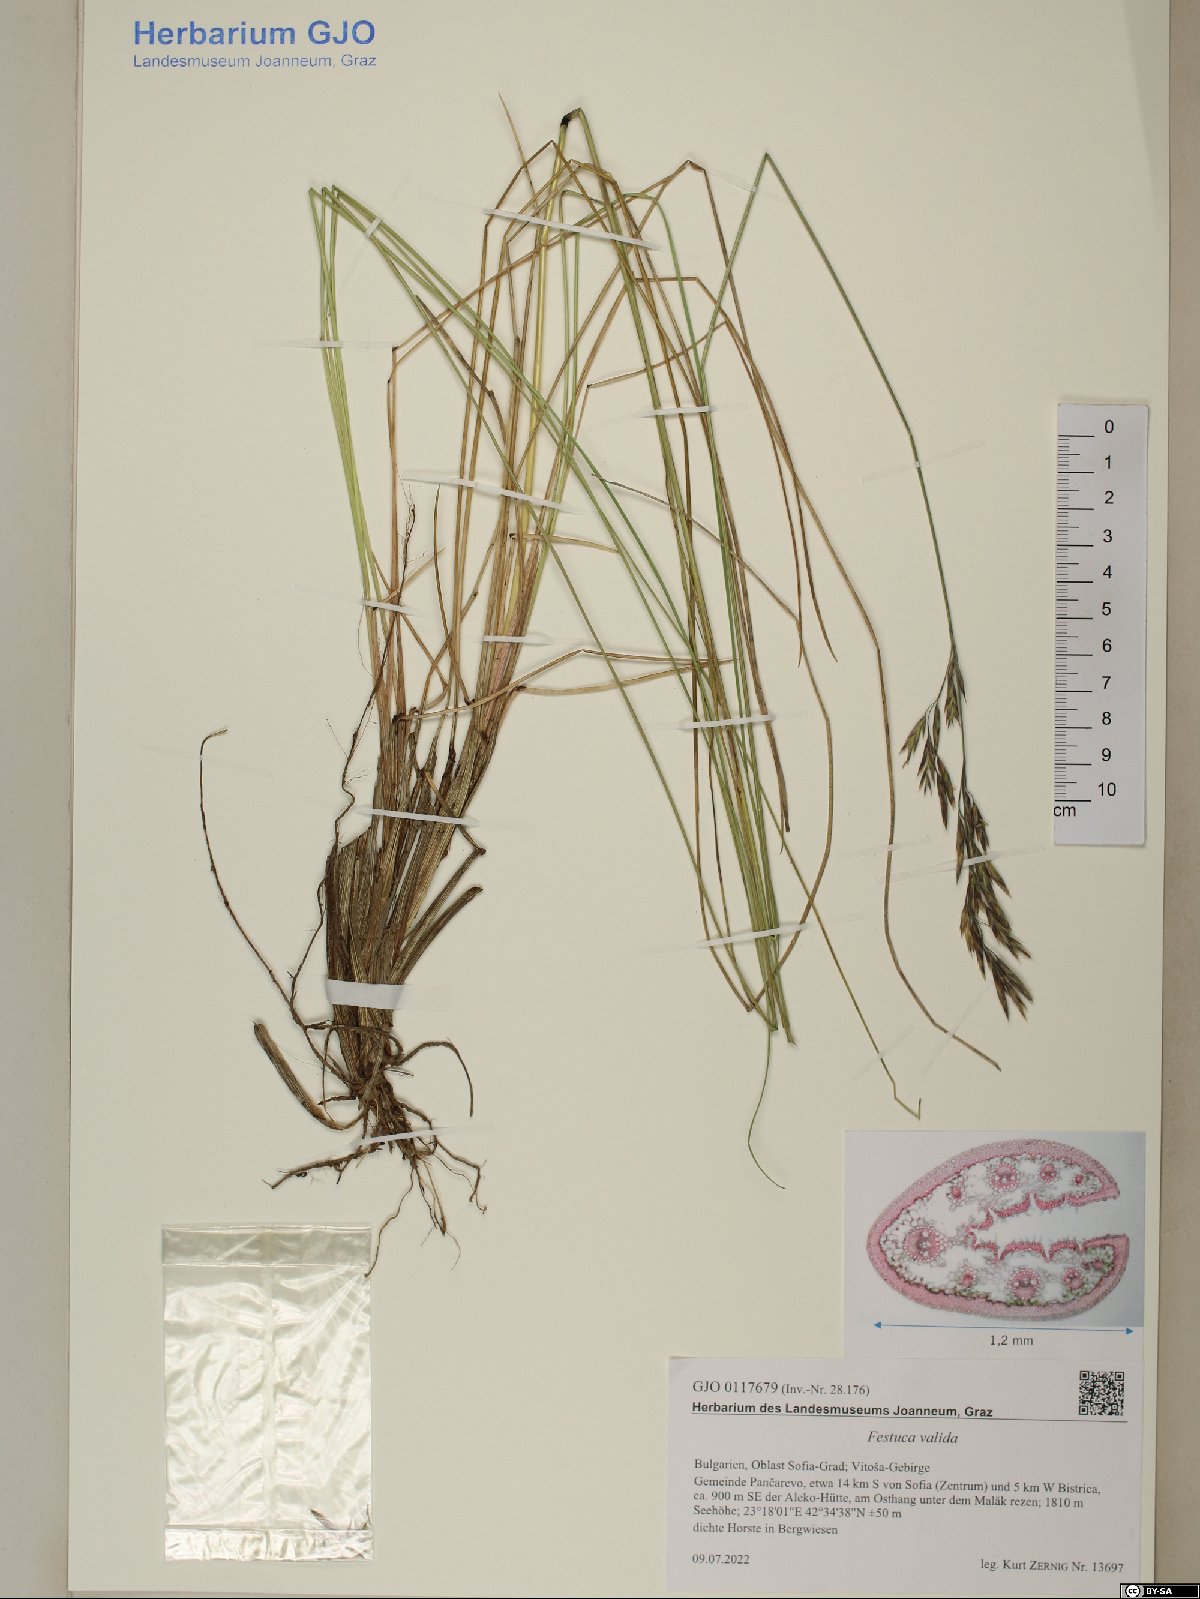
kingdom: Plantae
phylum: Tracheophyta
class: Liliopsida
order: Poales
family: Poaceae
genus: Festuca
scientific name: Festuca valida
